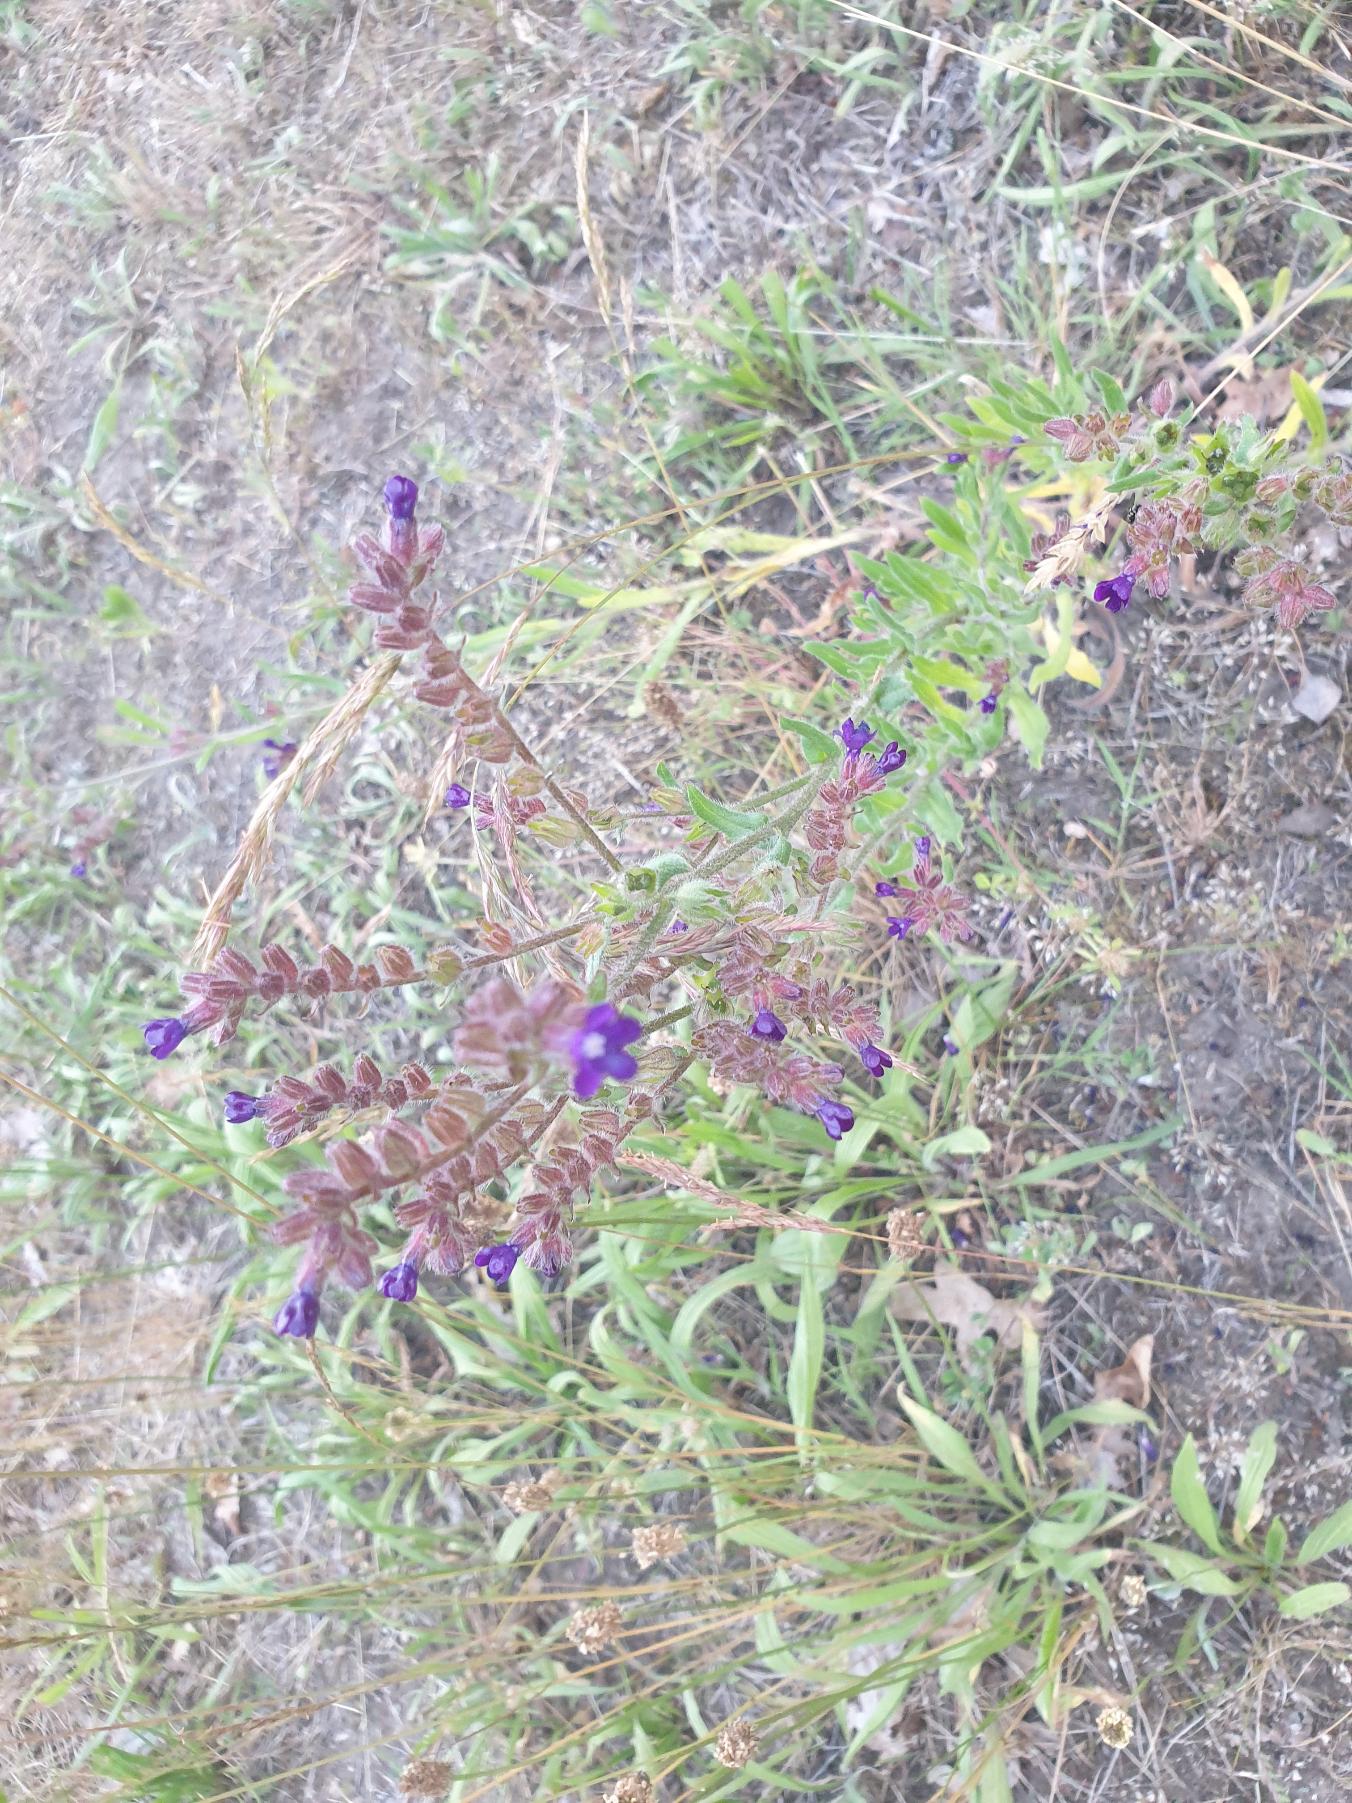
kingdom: Plantae
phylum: Tracheophyta
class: Magnoliopsida
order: Boraginales
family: Boraginaceae
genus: Anchusa
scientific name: Anchusa officinalis
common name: Læge-oksetunge
